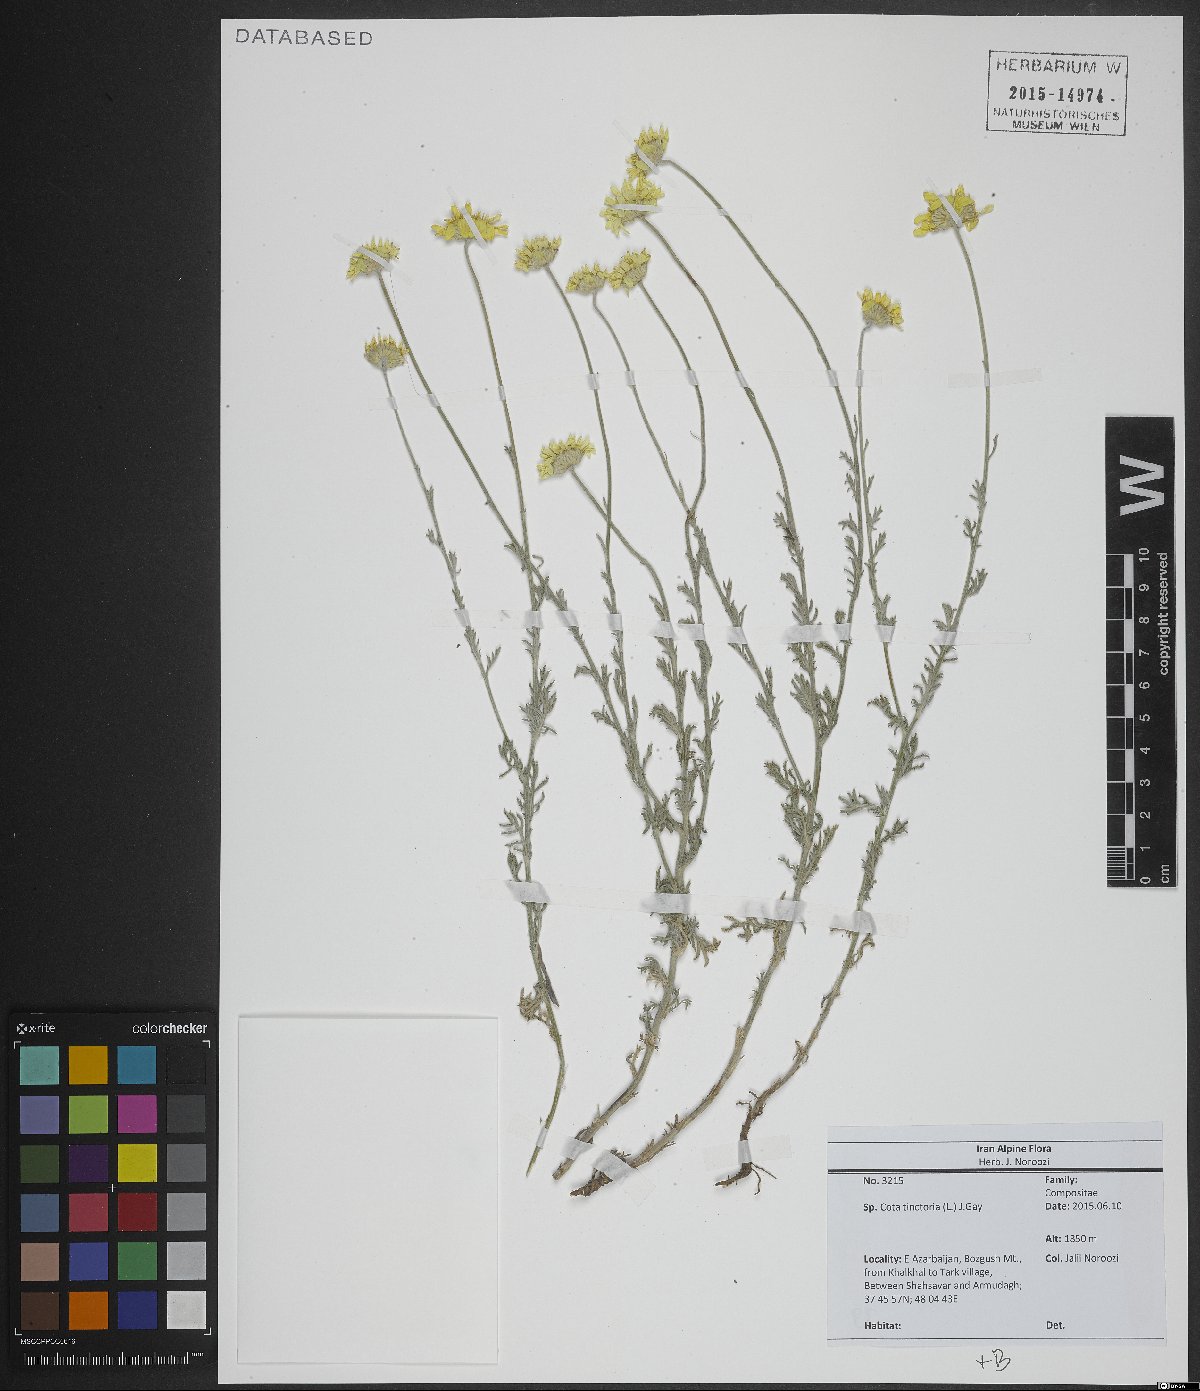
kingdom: Plantae
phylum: Tracheophyta
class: Magnoliopsida
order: Asterales
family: Asteraceae
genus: Cota
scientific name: Cota tinctoria
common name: Golden chamomile
